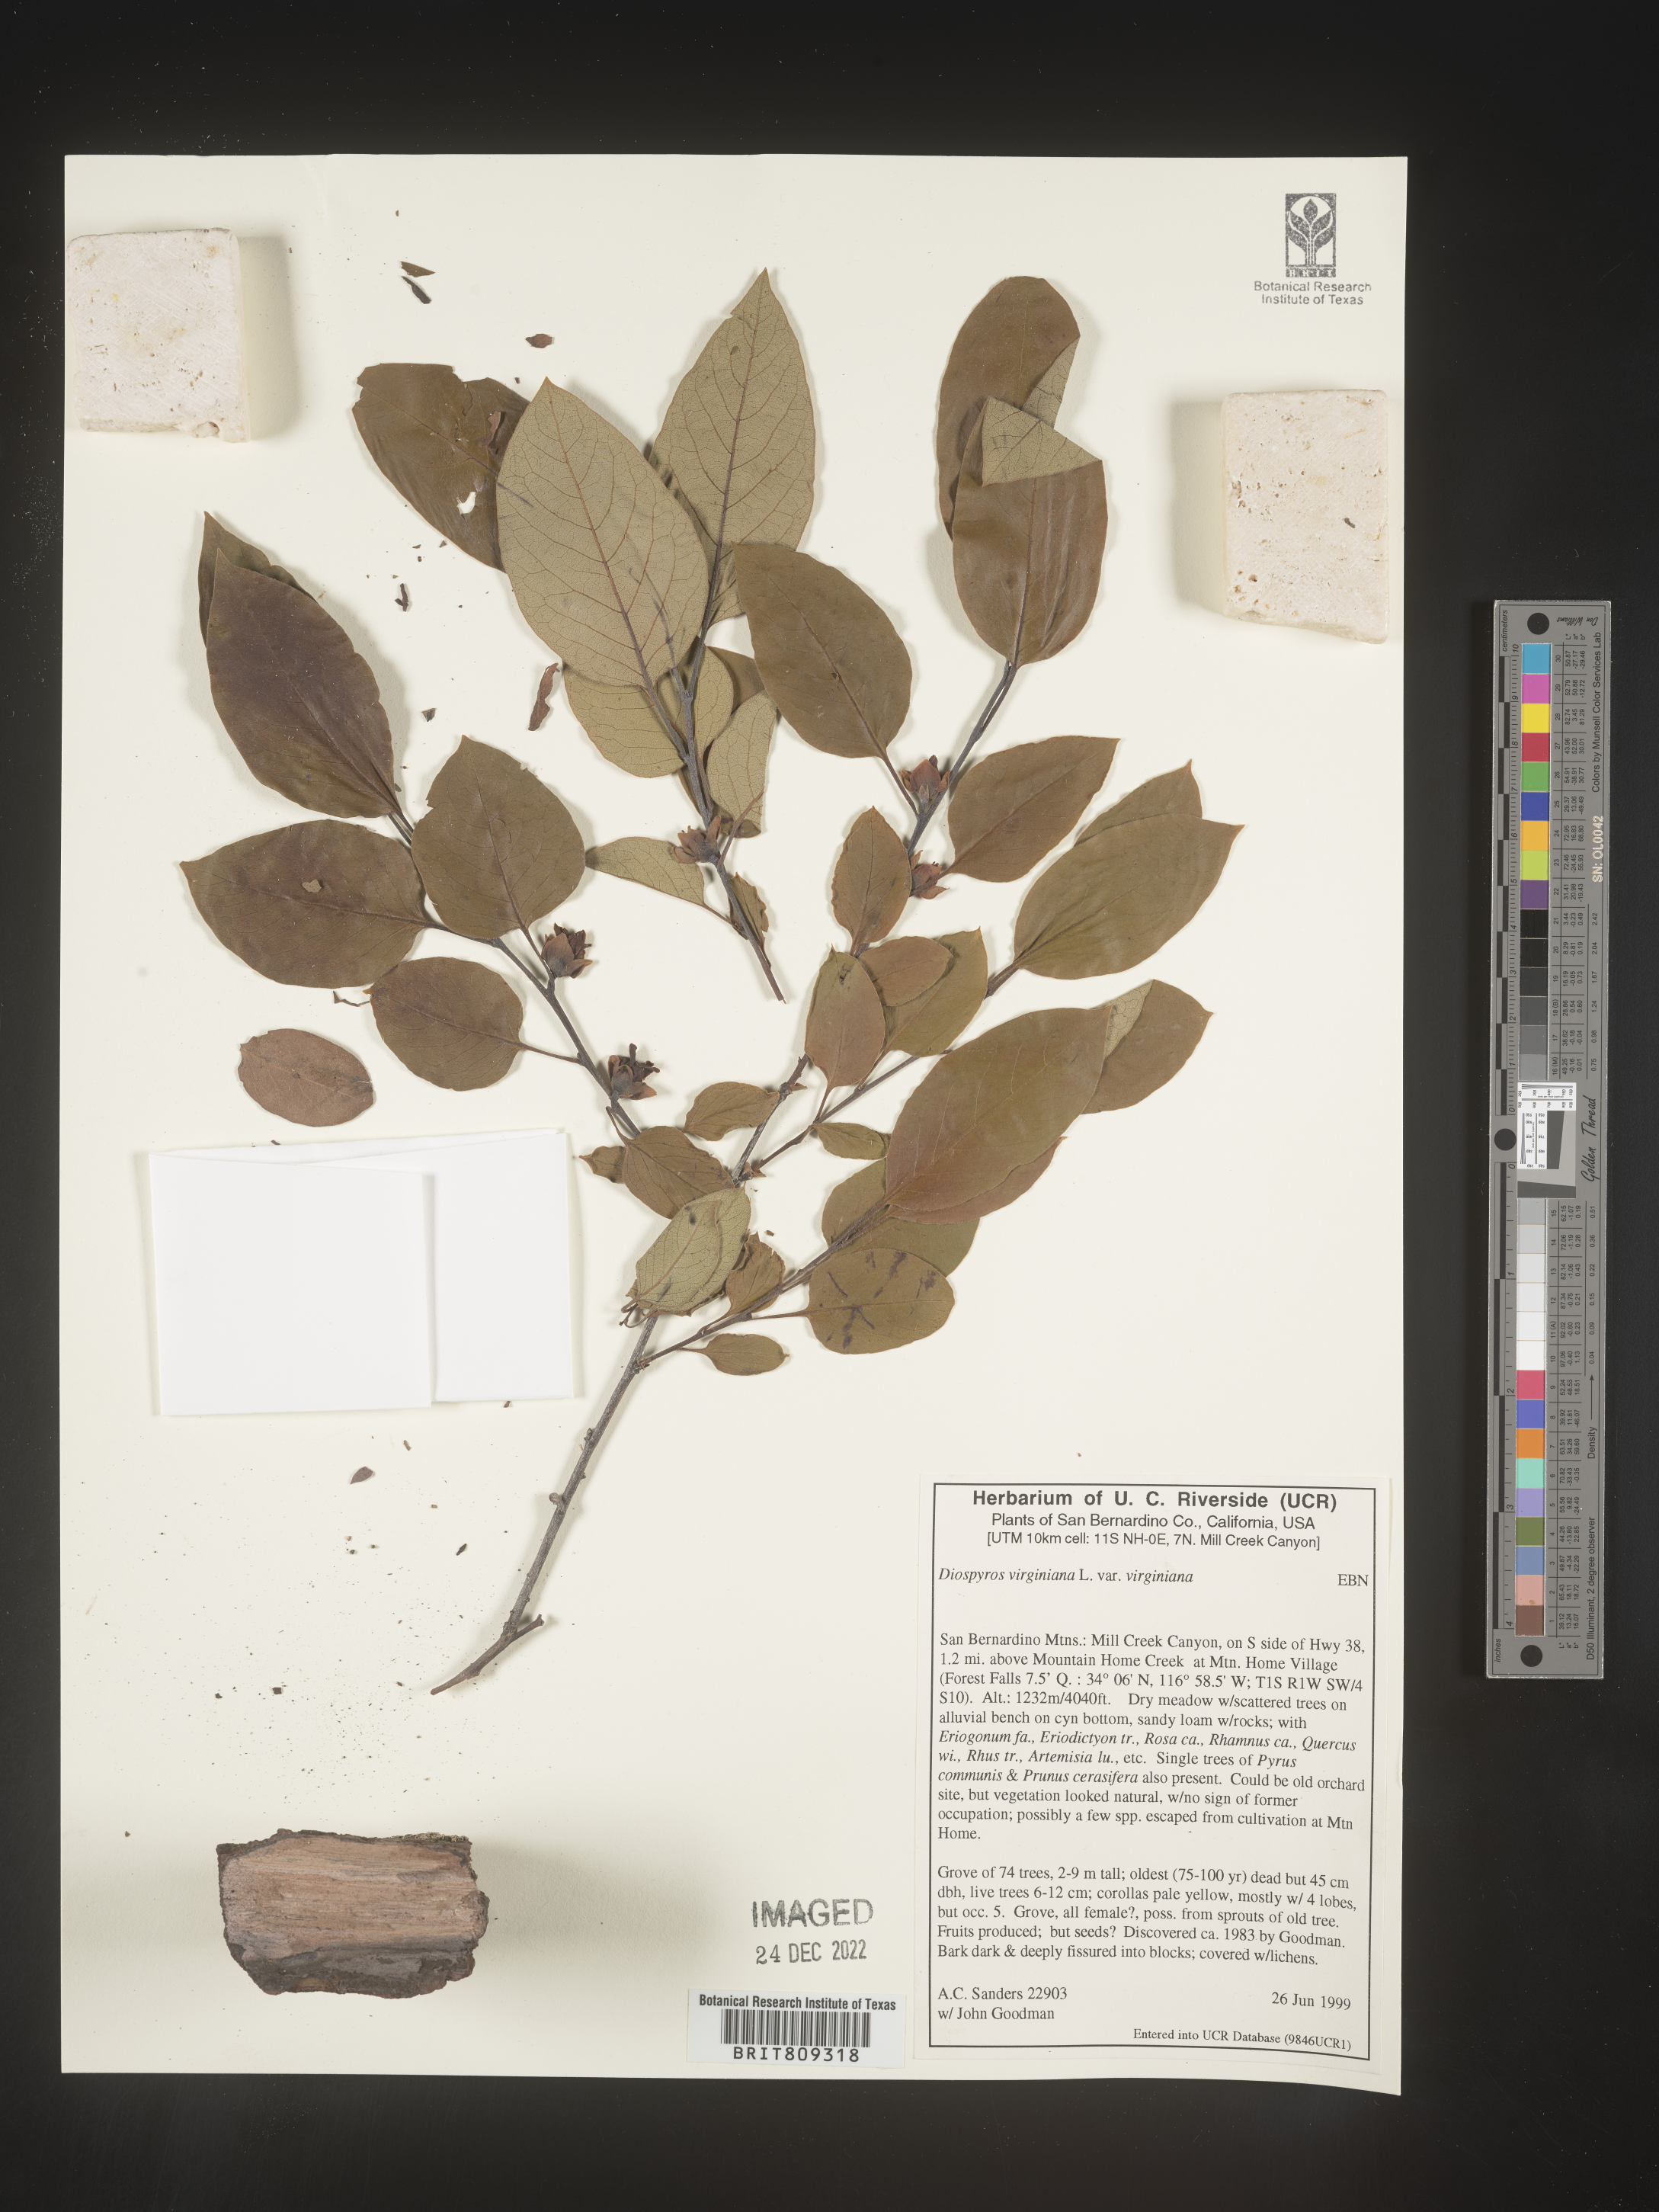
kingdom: Plantae
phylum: Tracheophyta
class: Magnoliopsida
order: Ericales
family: Ebenaceae
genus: Diospyros
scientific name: Diospyros virginiana
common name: Persimmon
